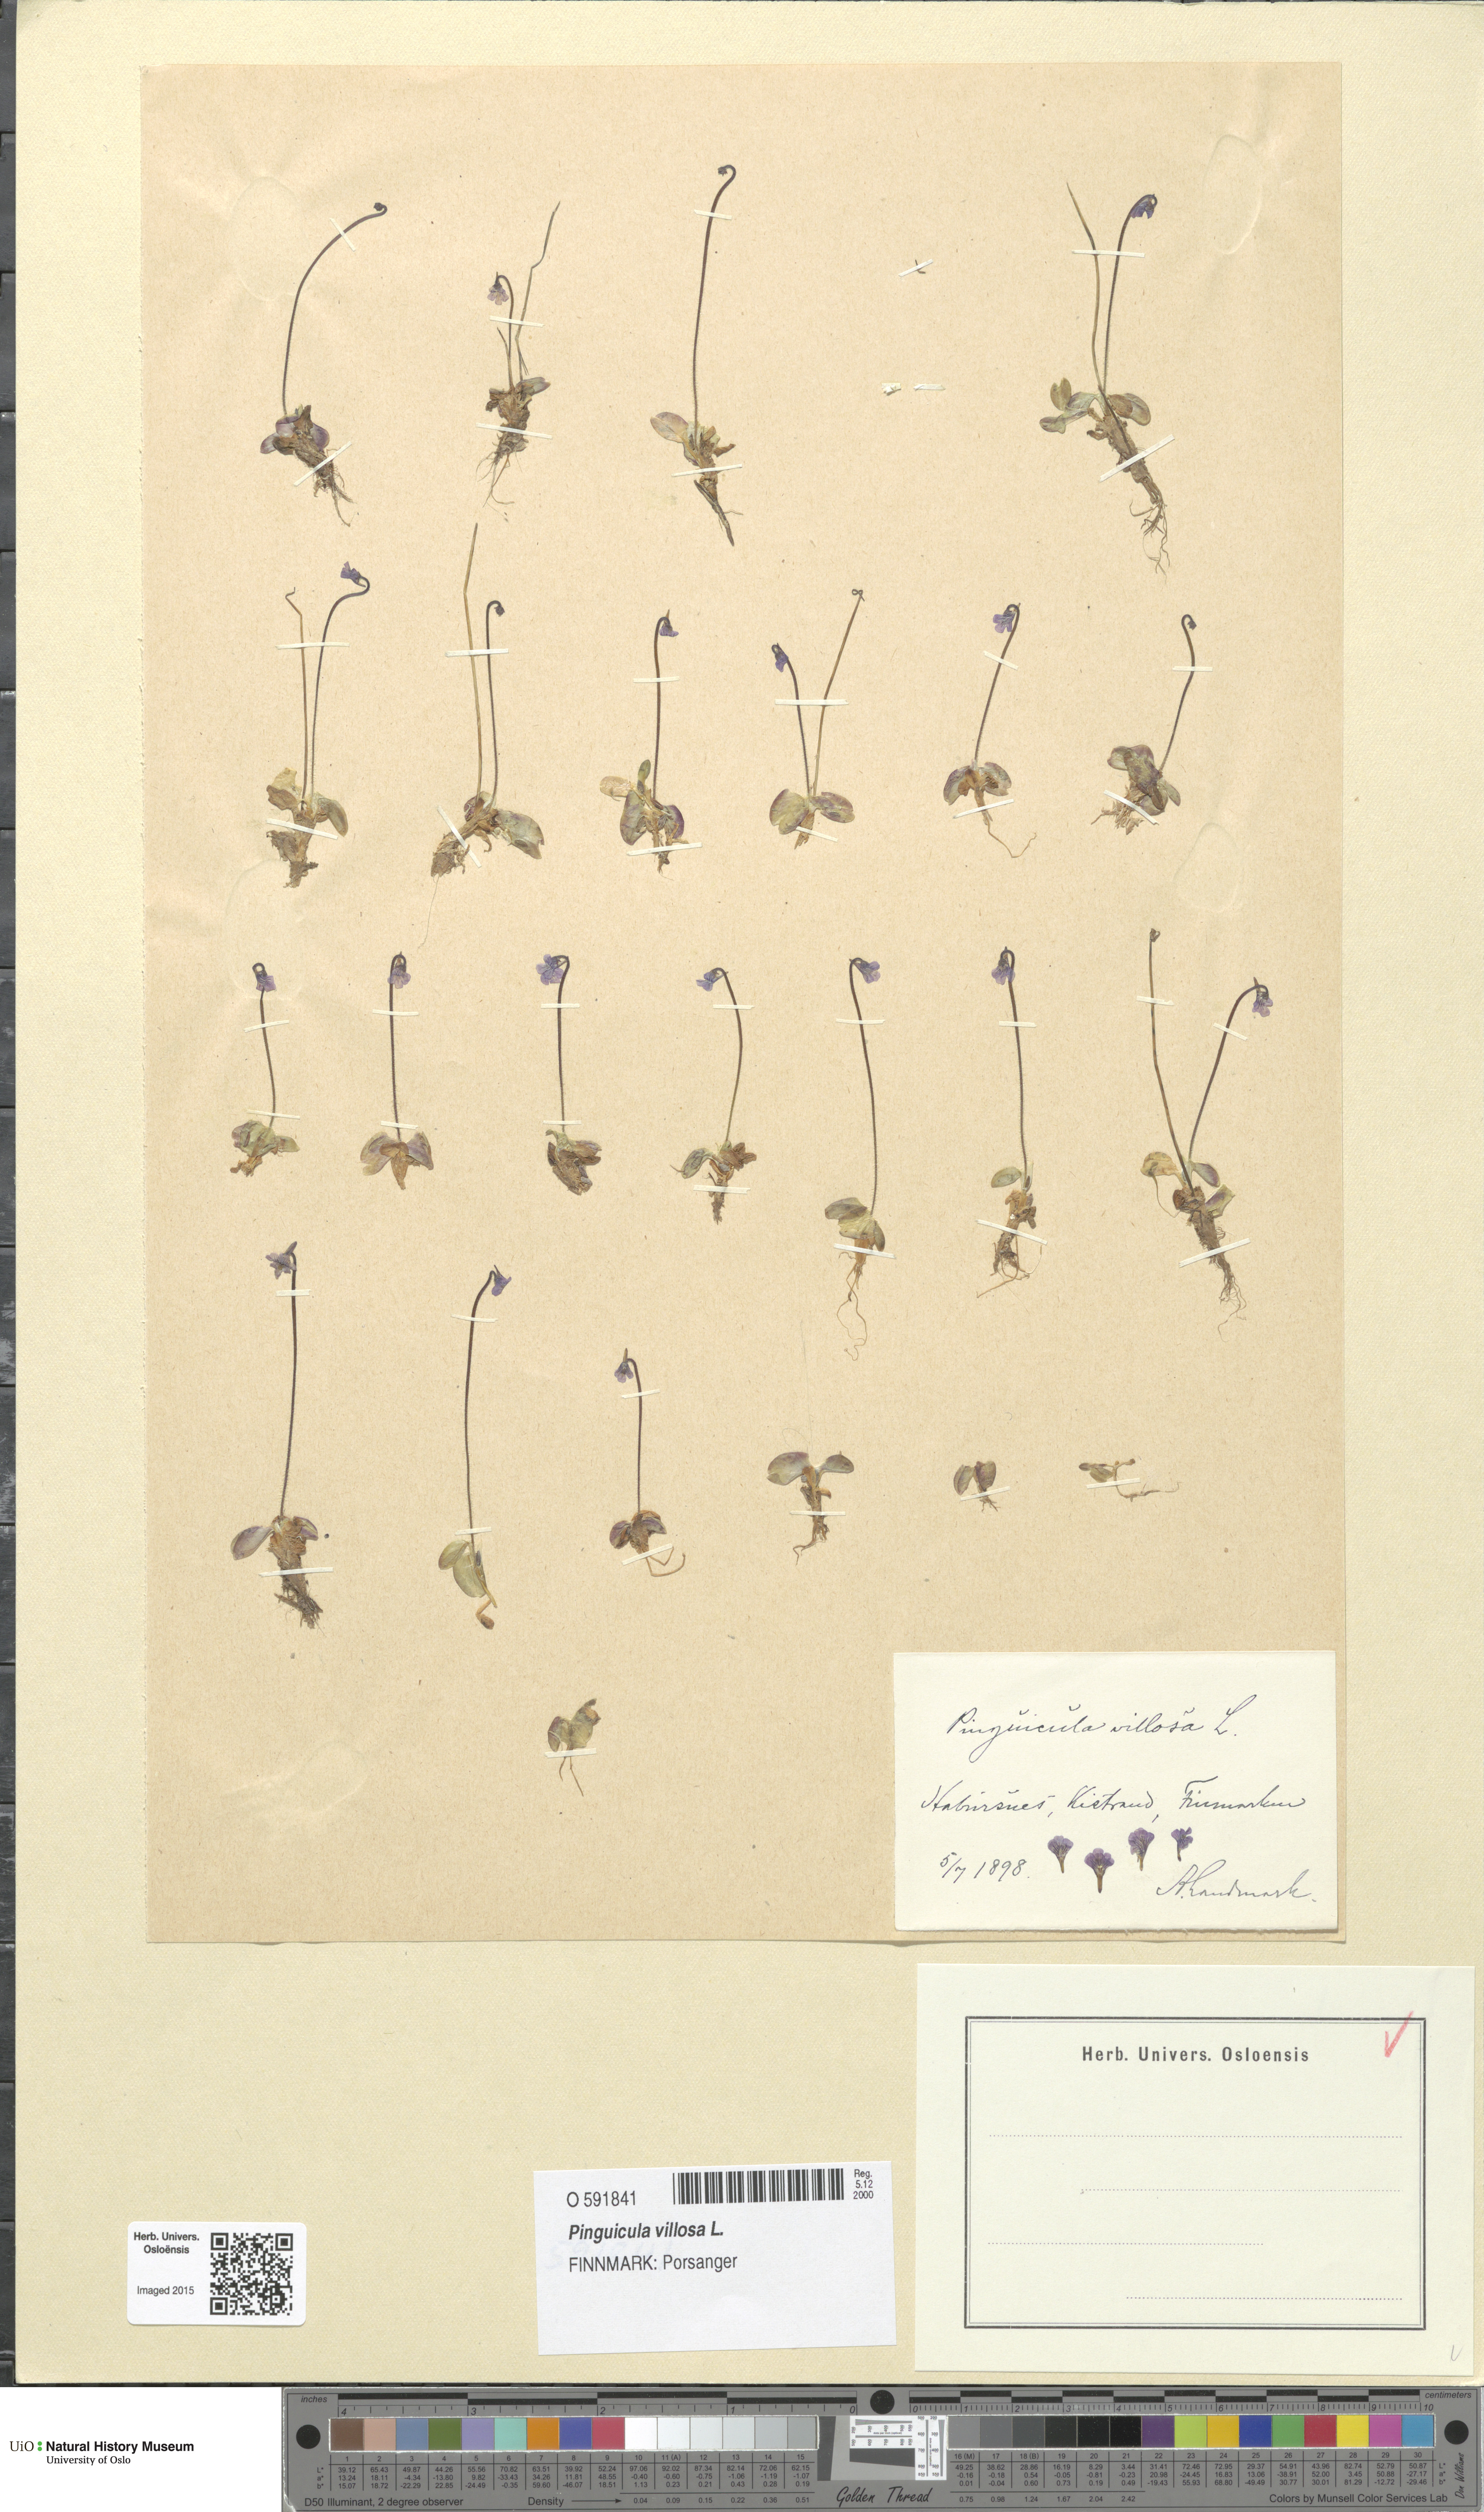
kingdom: Plantae
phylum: Tracheophyta
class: Magnoliopsida
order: Lamiales
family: Lentibulariaceae
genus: Pinguicula
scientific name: Pinguicula villosa
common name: Hairy butterwort
